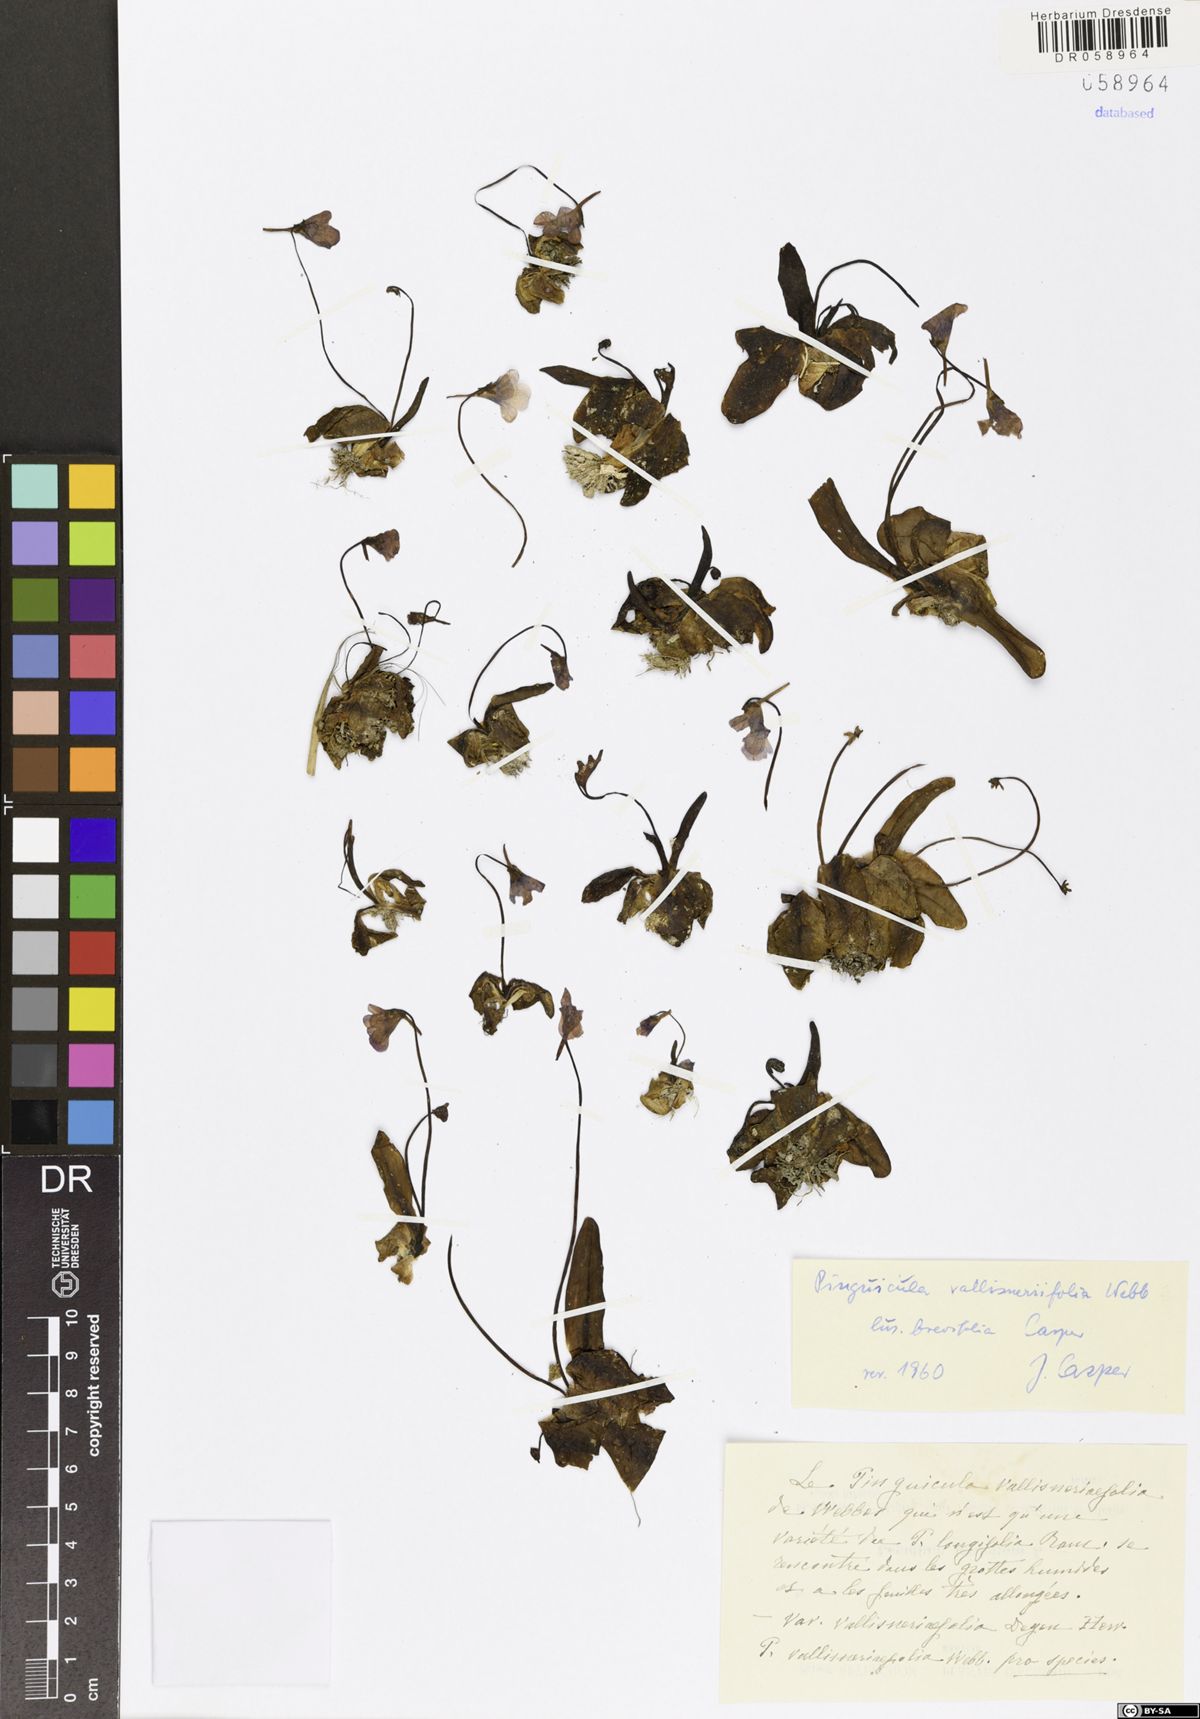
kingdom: Plantae
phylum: Tracheophyta
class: Magnoliopsida
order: Lamiales
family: Lentibulariaceae
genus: Pinguicula
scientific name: Pinguicula vallisneriifolia
